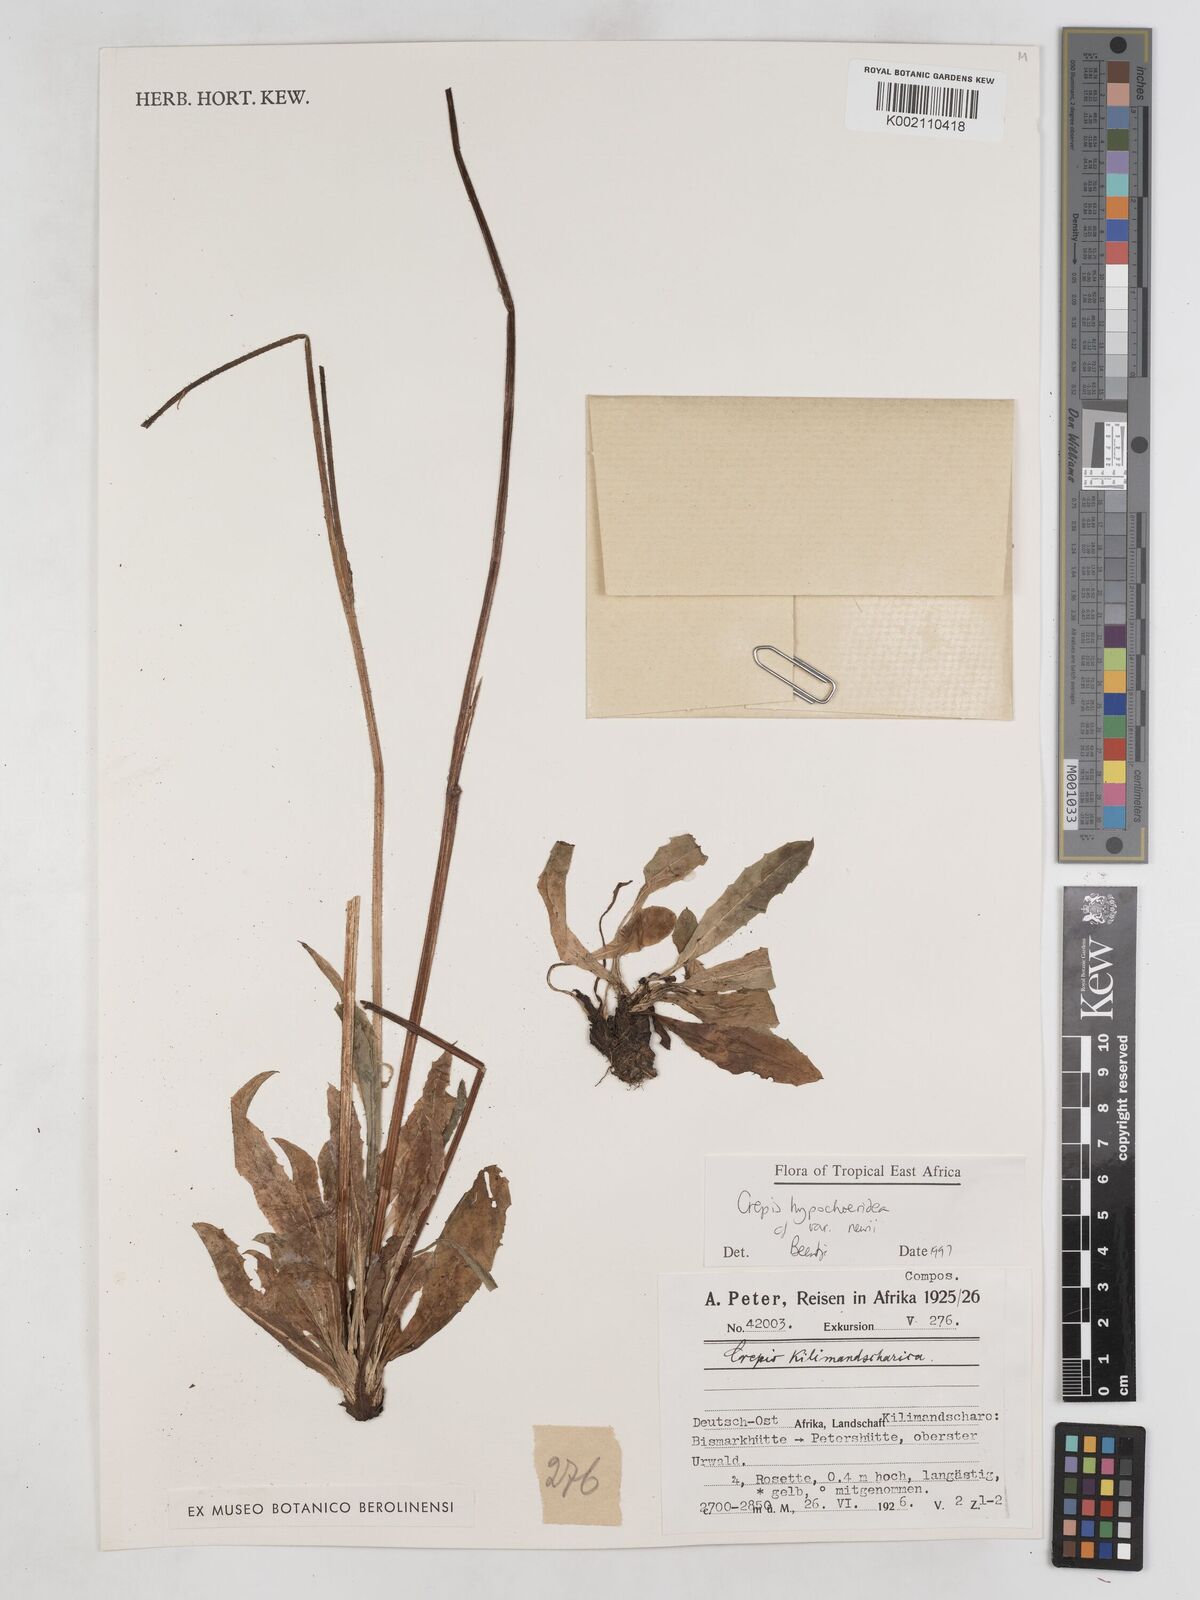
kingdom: Plantae
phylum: Tracheophyta
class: Magnoliopsida
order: Asterales
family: Asteraceae
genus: Crepis
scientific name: Crepis hypochoeridea
